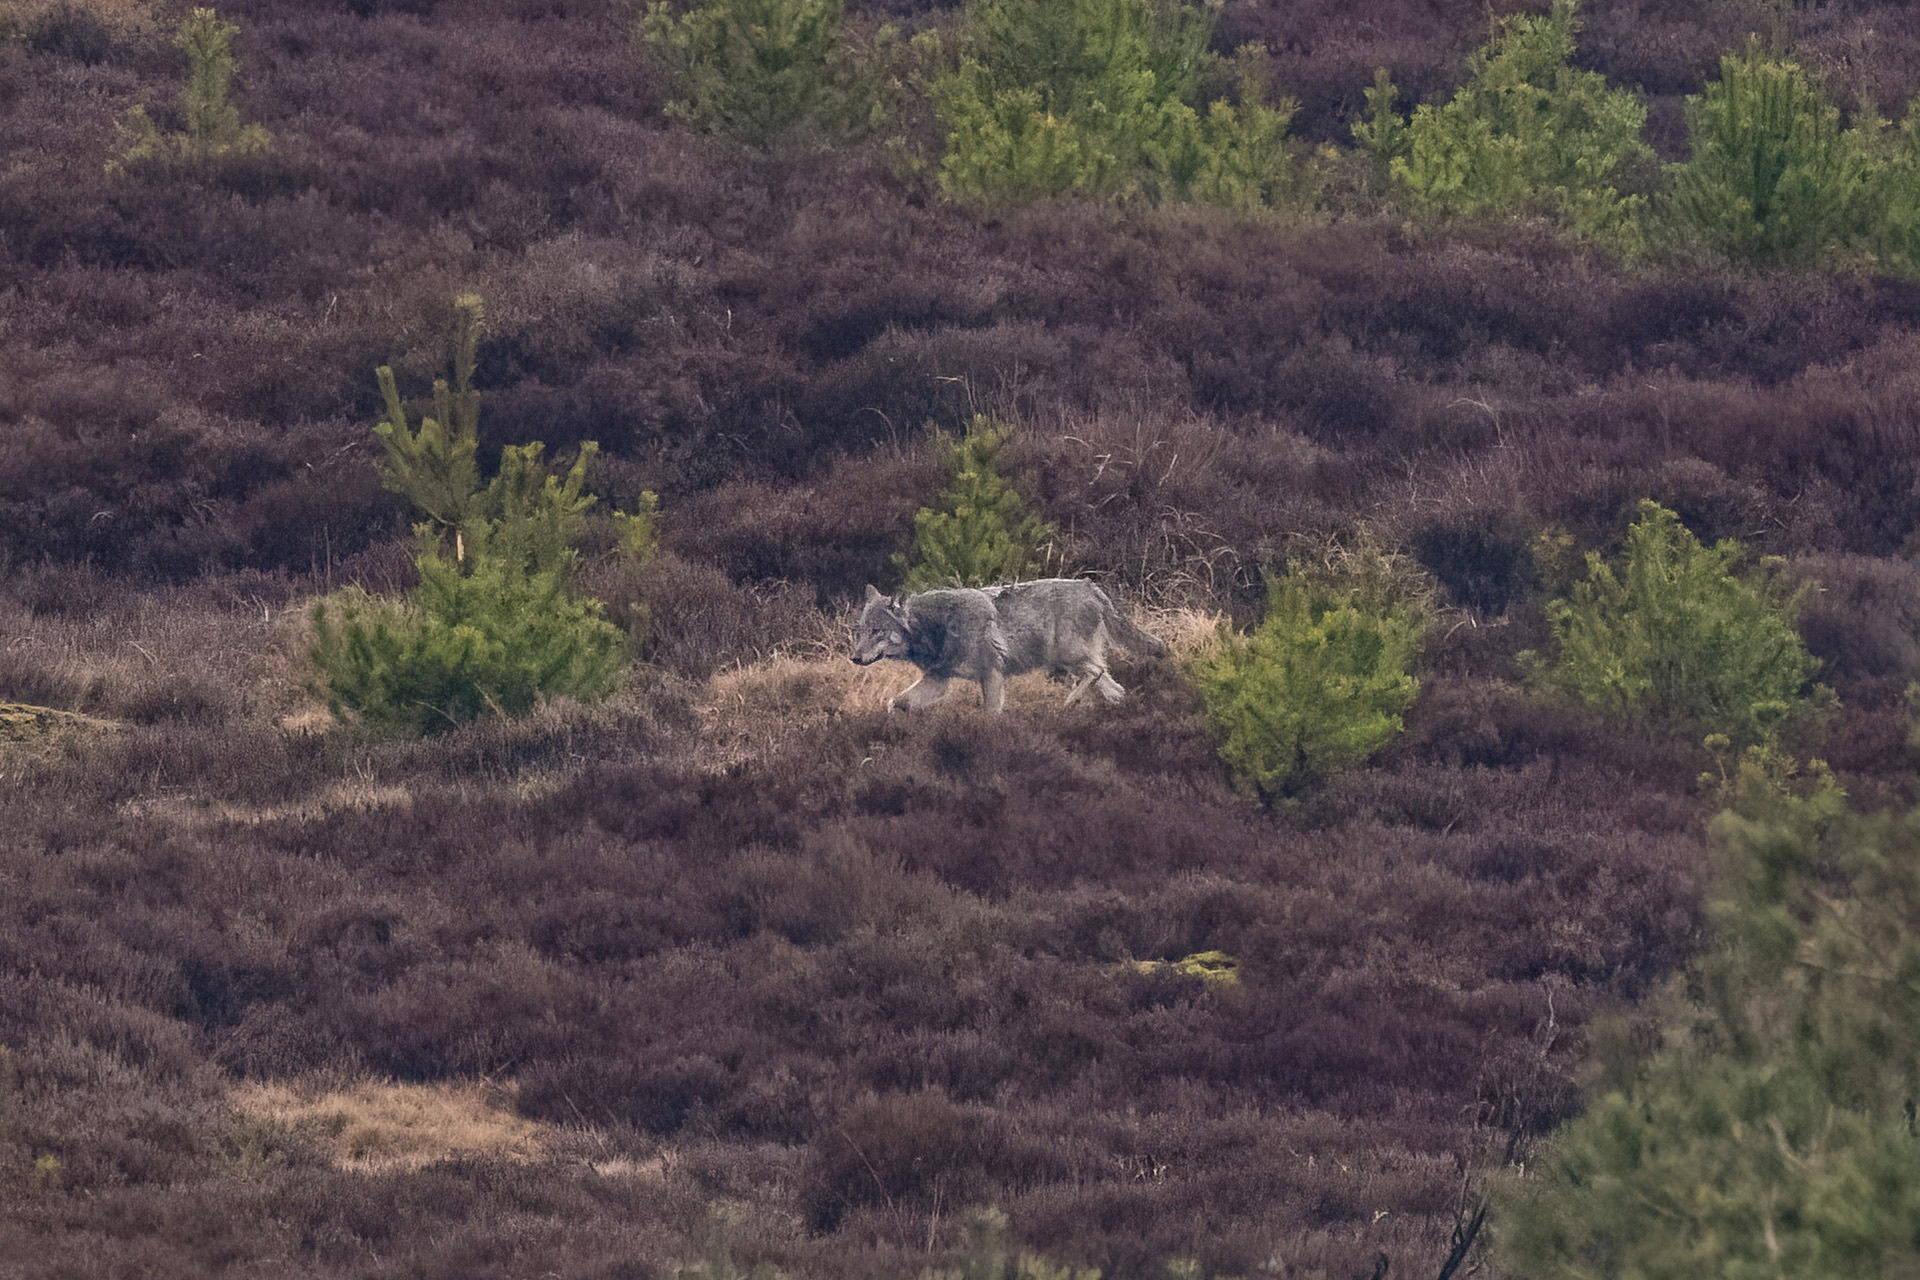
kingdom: Animalia
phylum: Chordata
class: Mammalia
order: Carnivora
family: Canidae
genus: Canis
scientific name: Canis lupus
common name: Ulv
